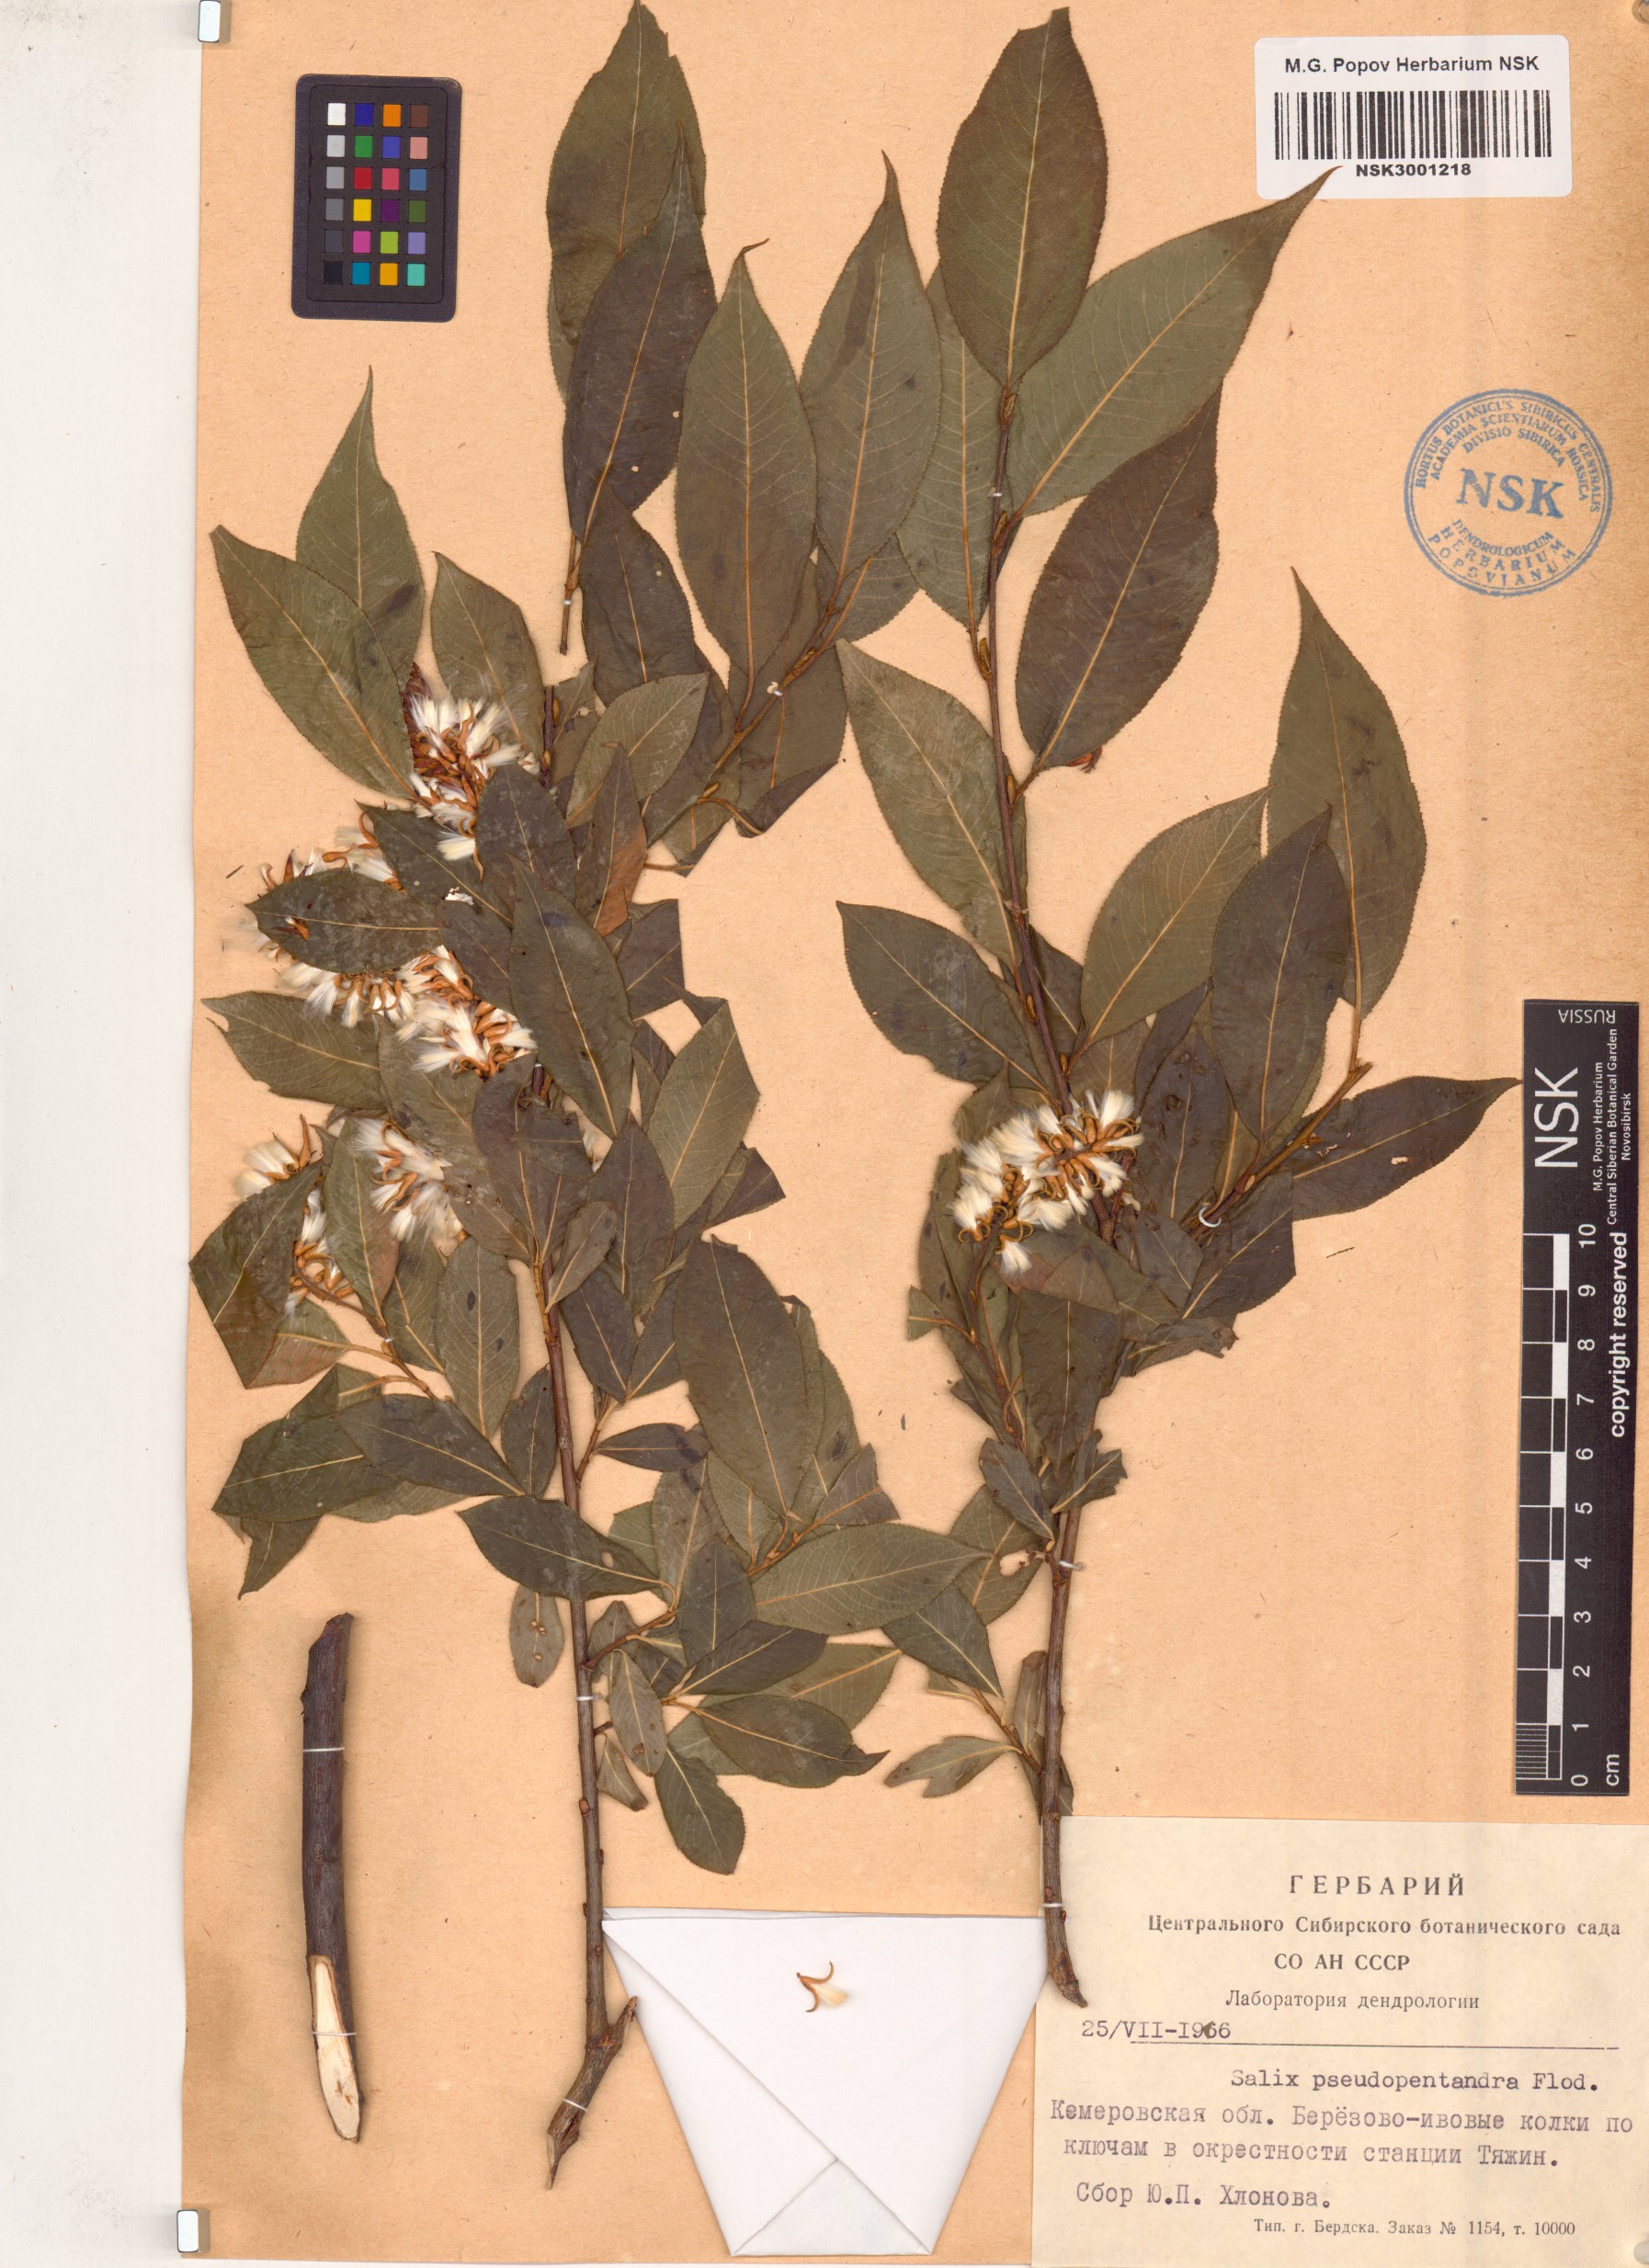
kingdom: Plantae
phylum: Tracheophyta
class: Magnoliopsida
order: Malpighiales
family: Salicaceae
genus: Salix
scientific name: Salix pentandra
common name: Bay willow
